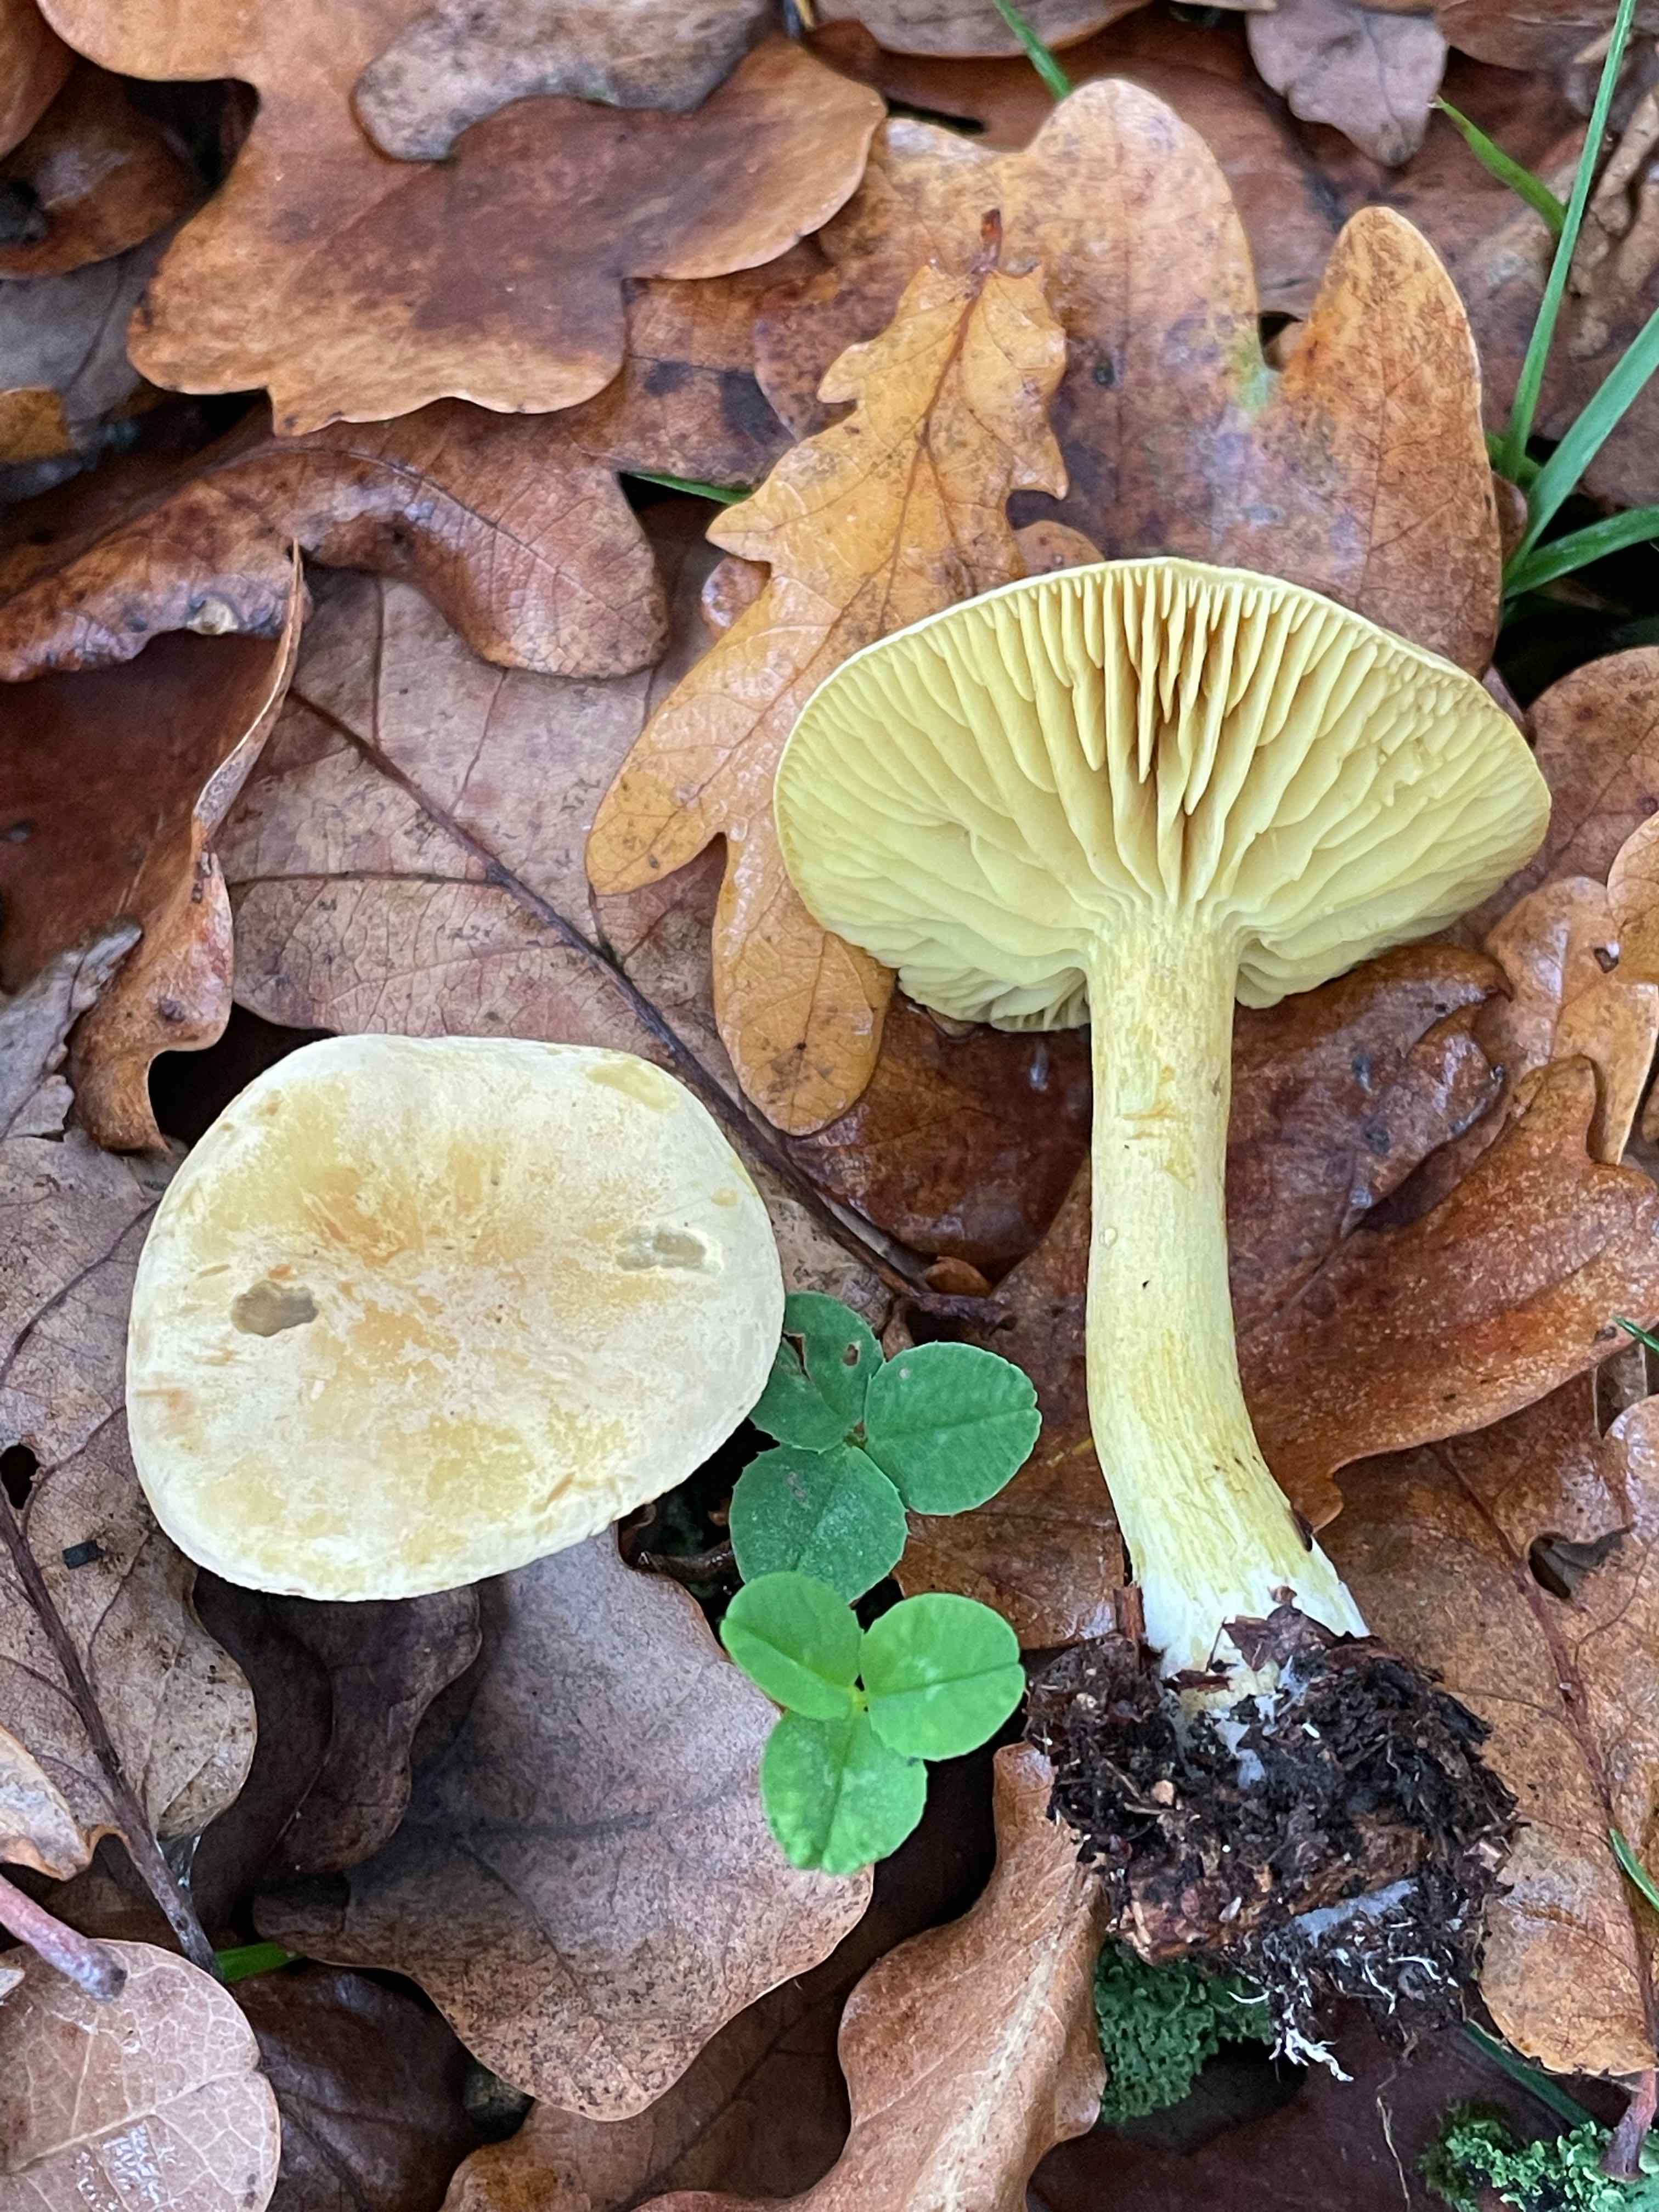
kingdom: Fungi
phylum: Basidiomycota
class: Agaricomycetes
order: Agaricales
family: Tricholomataceae
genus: Tricholoma
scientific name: Tricholoma sulphureum
